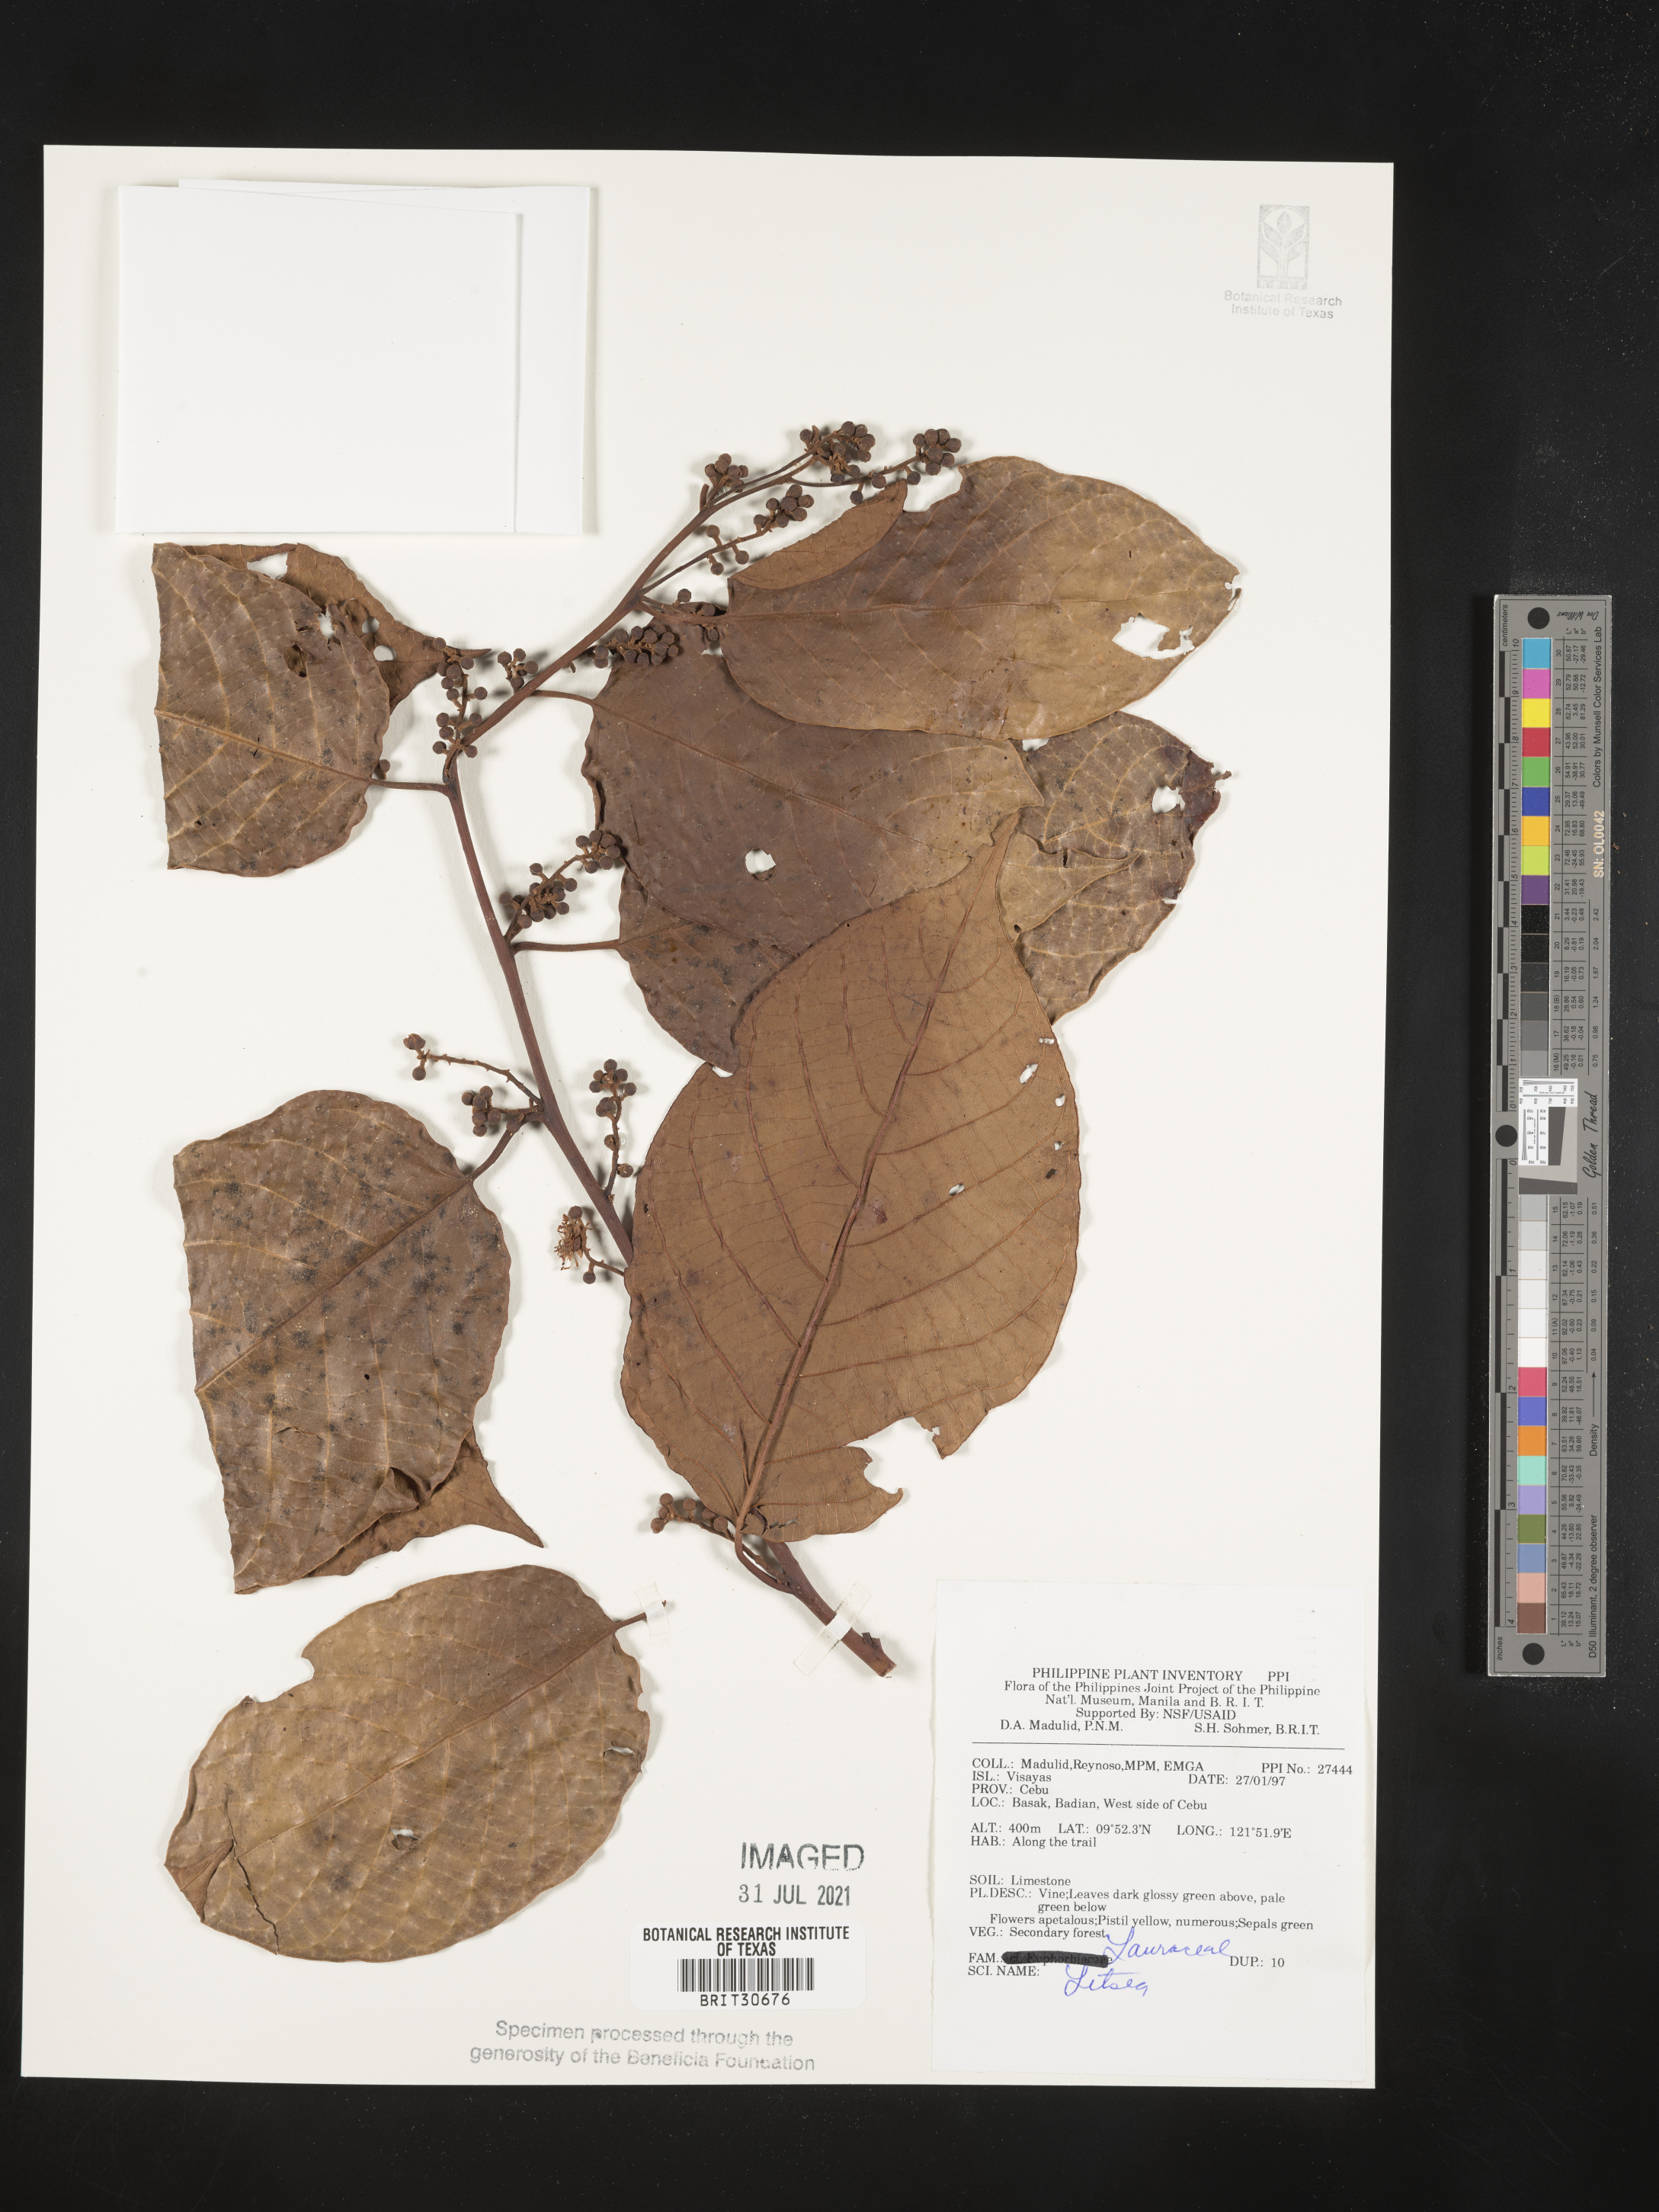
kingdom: Plantae
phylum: Tracheophyta
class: Magnoliopsida
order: Laurales
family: Lauraceae
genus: Litsea
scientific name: Litsea
